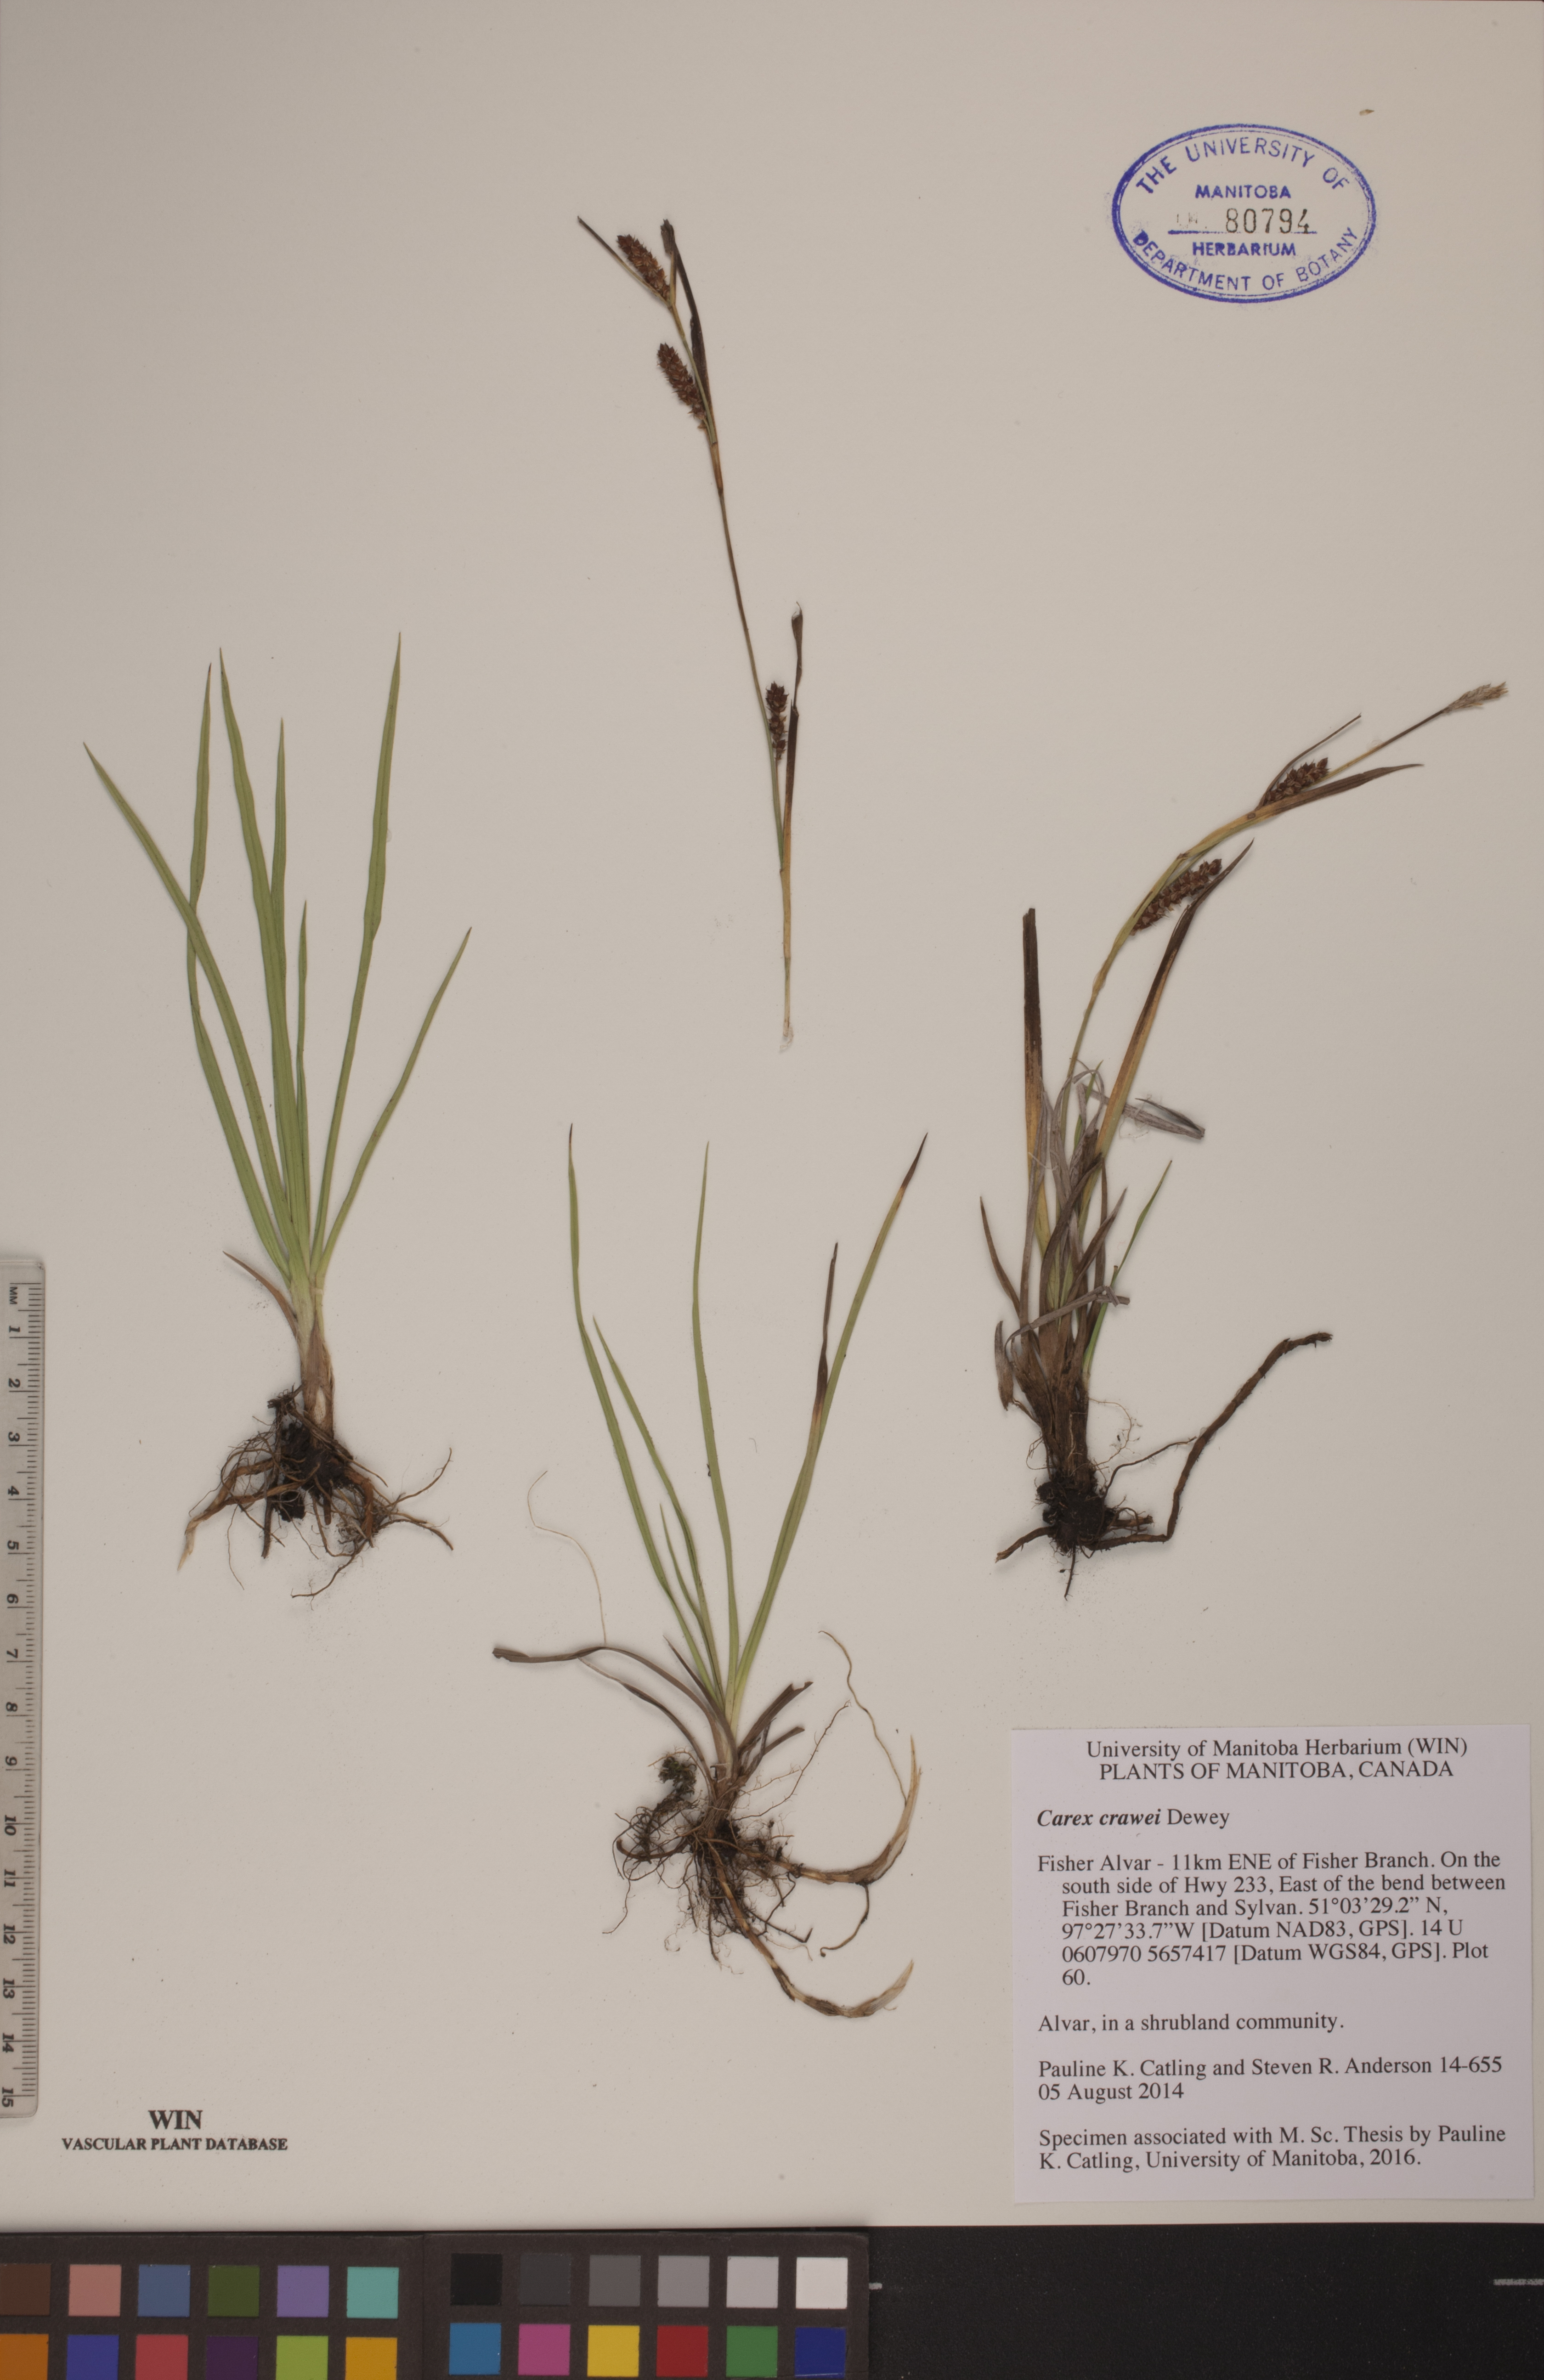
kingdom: Plantae
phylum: Tracheophyta
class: Liliopsida
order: Poales
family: Cyperaceae
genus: Carex
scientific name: Carex crawei
